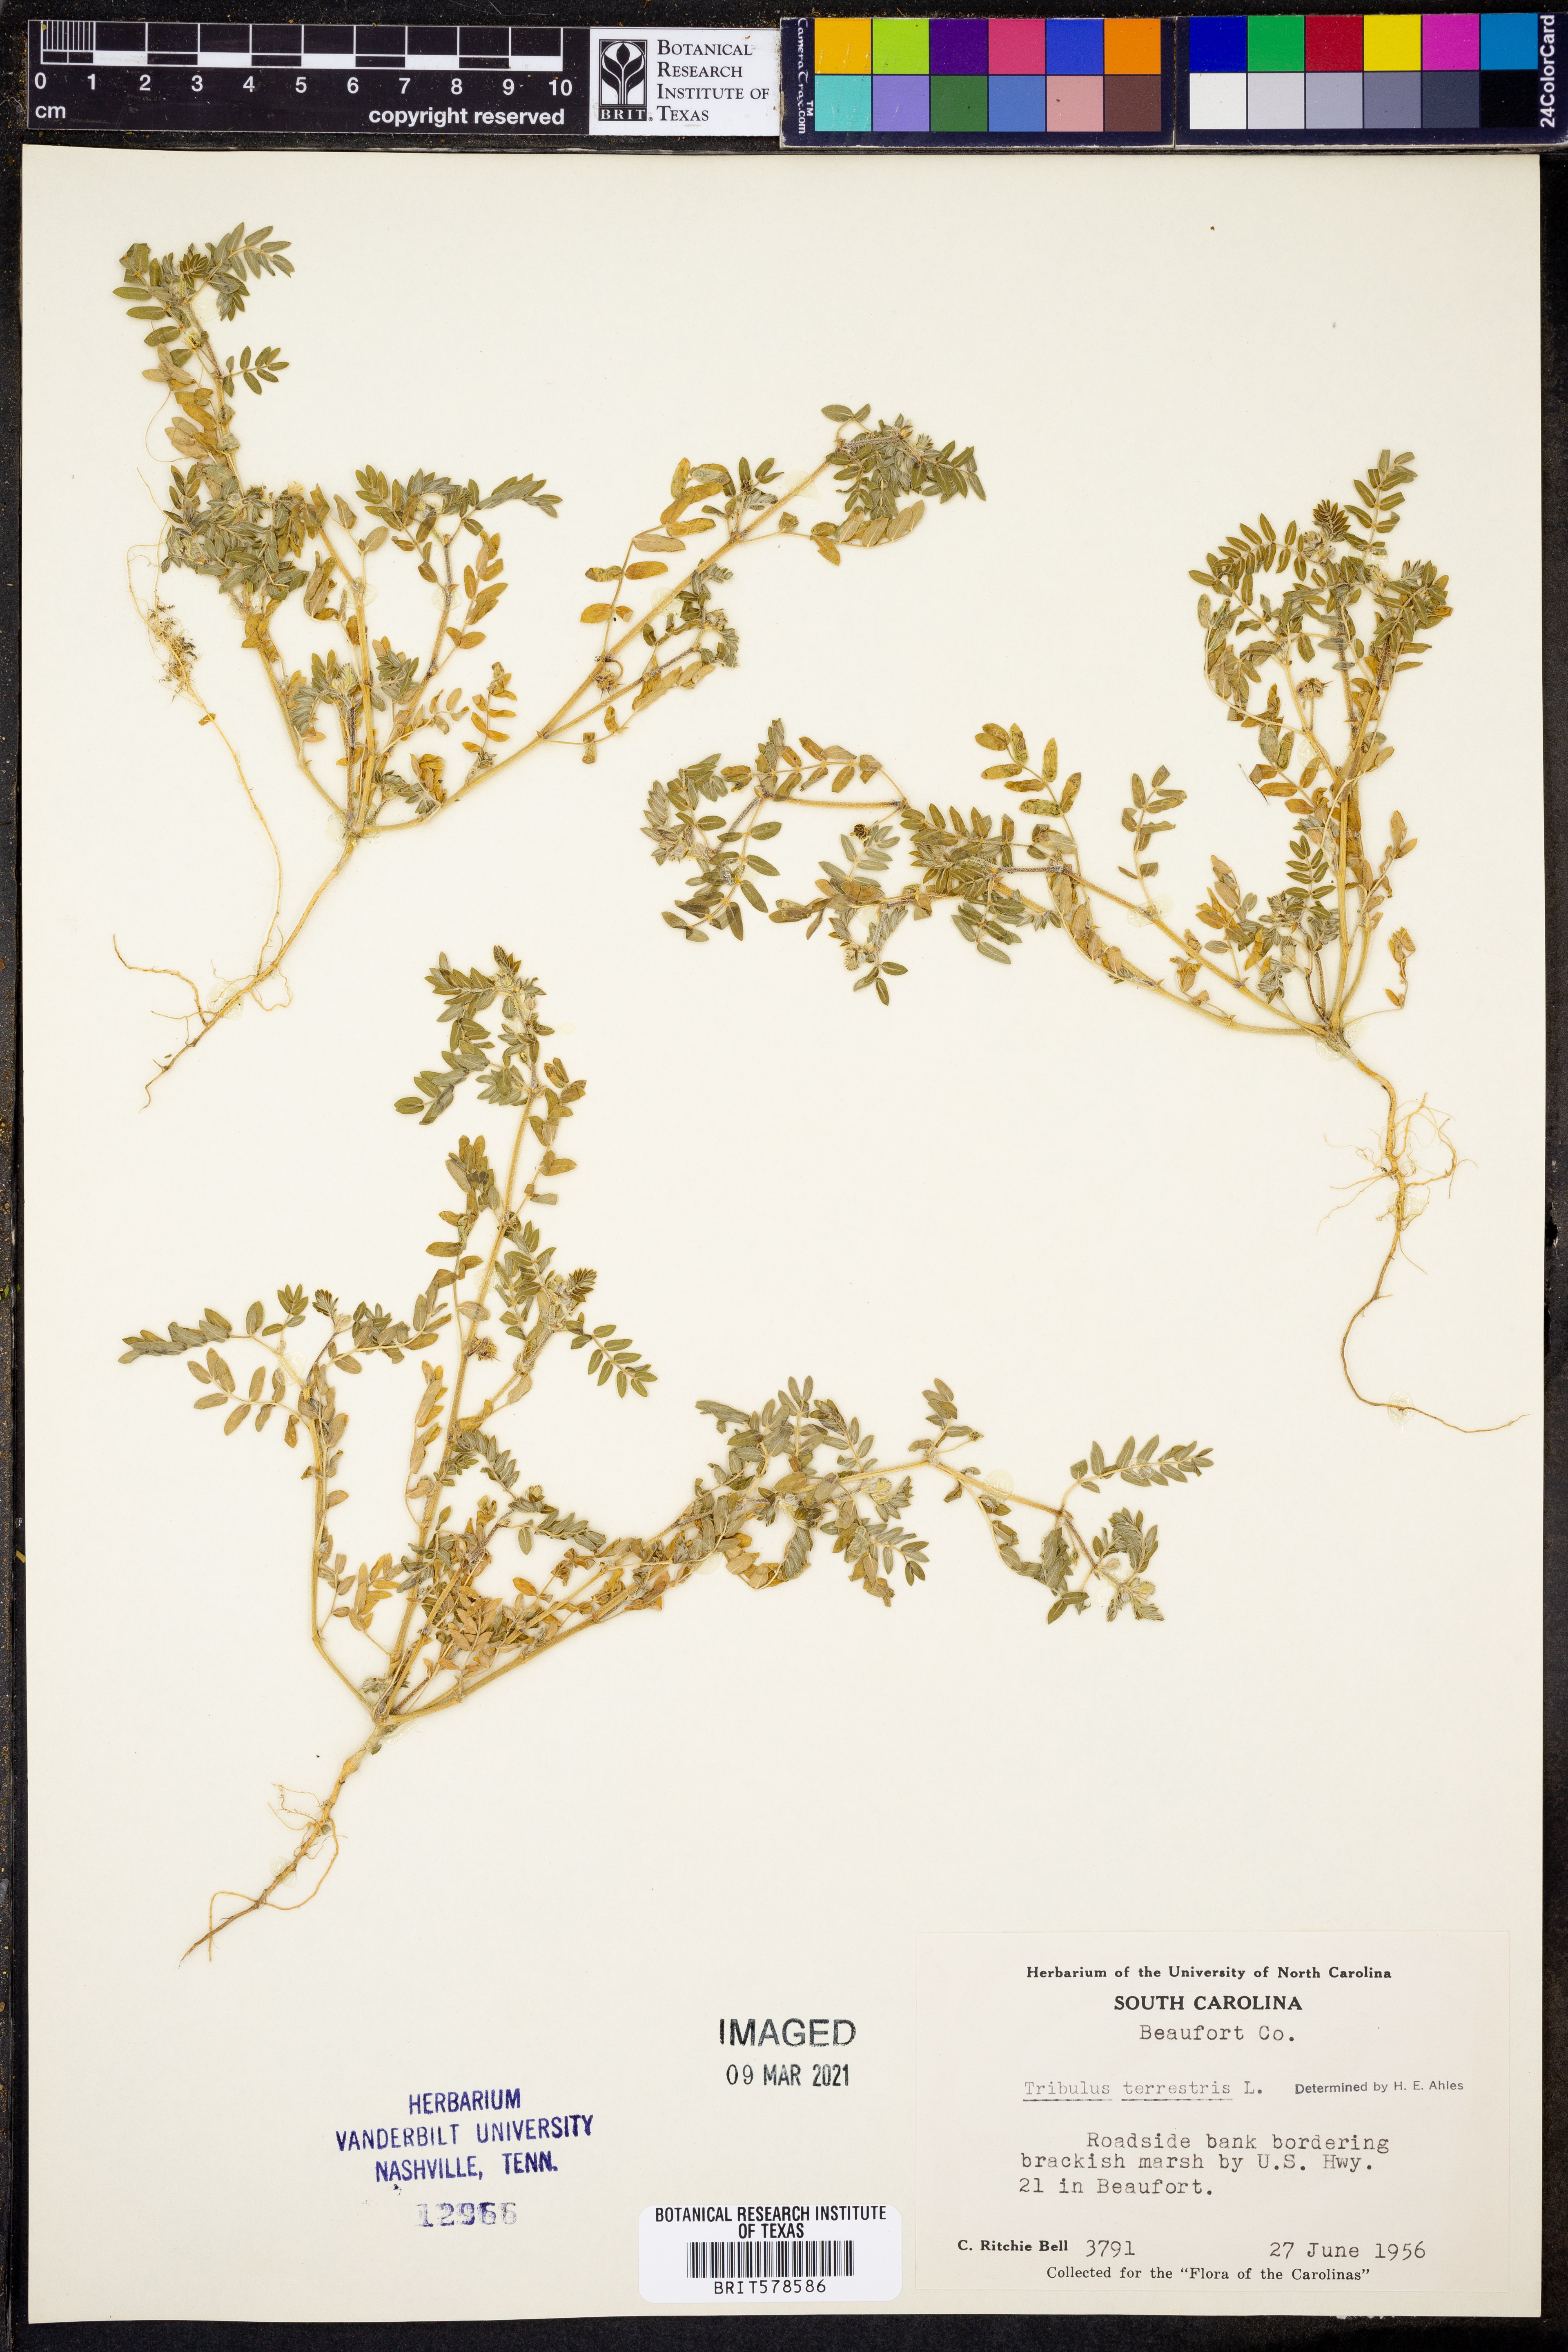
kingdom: Plantae
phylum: Tracheophyta
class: Magnoliopsida
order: Zygophyllales
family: Zygophyllaceae
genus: Tribulus
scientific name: Tribulus terrestris
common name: Puncturevine
